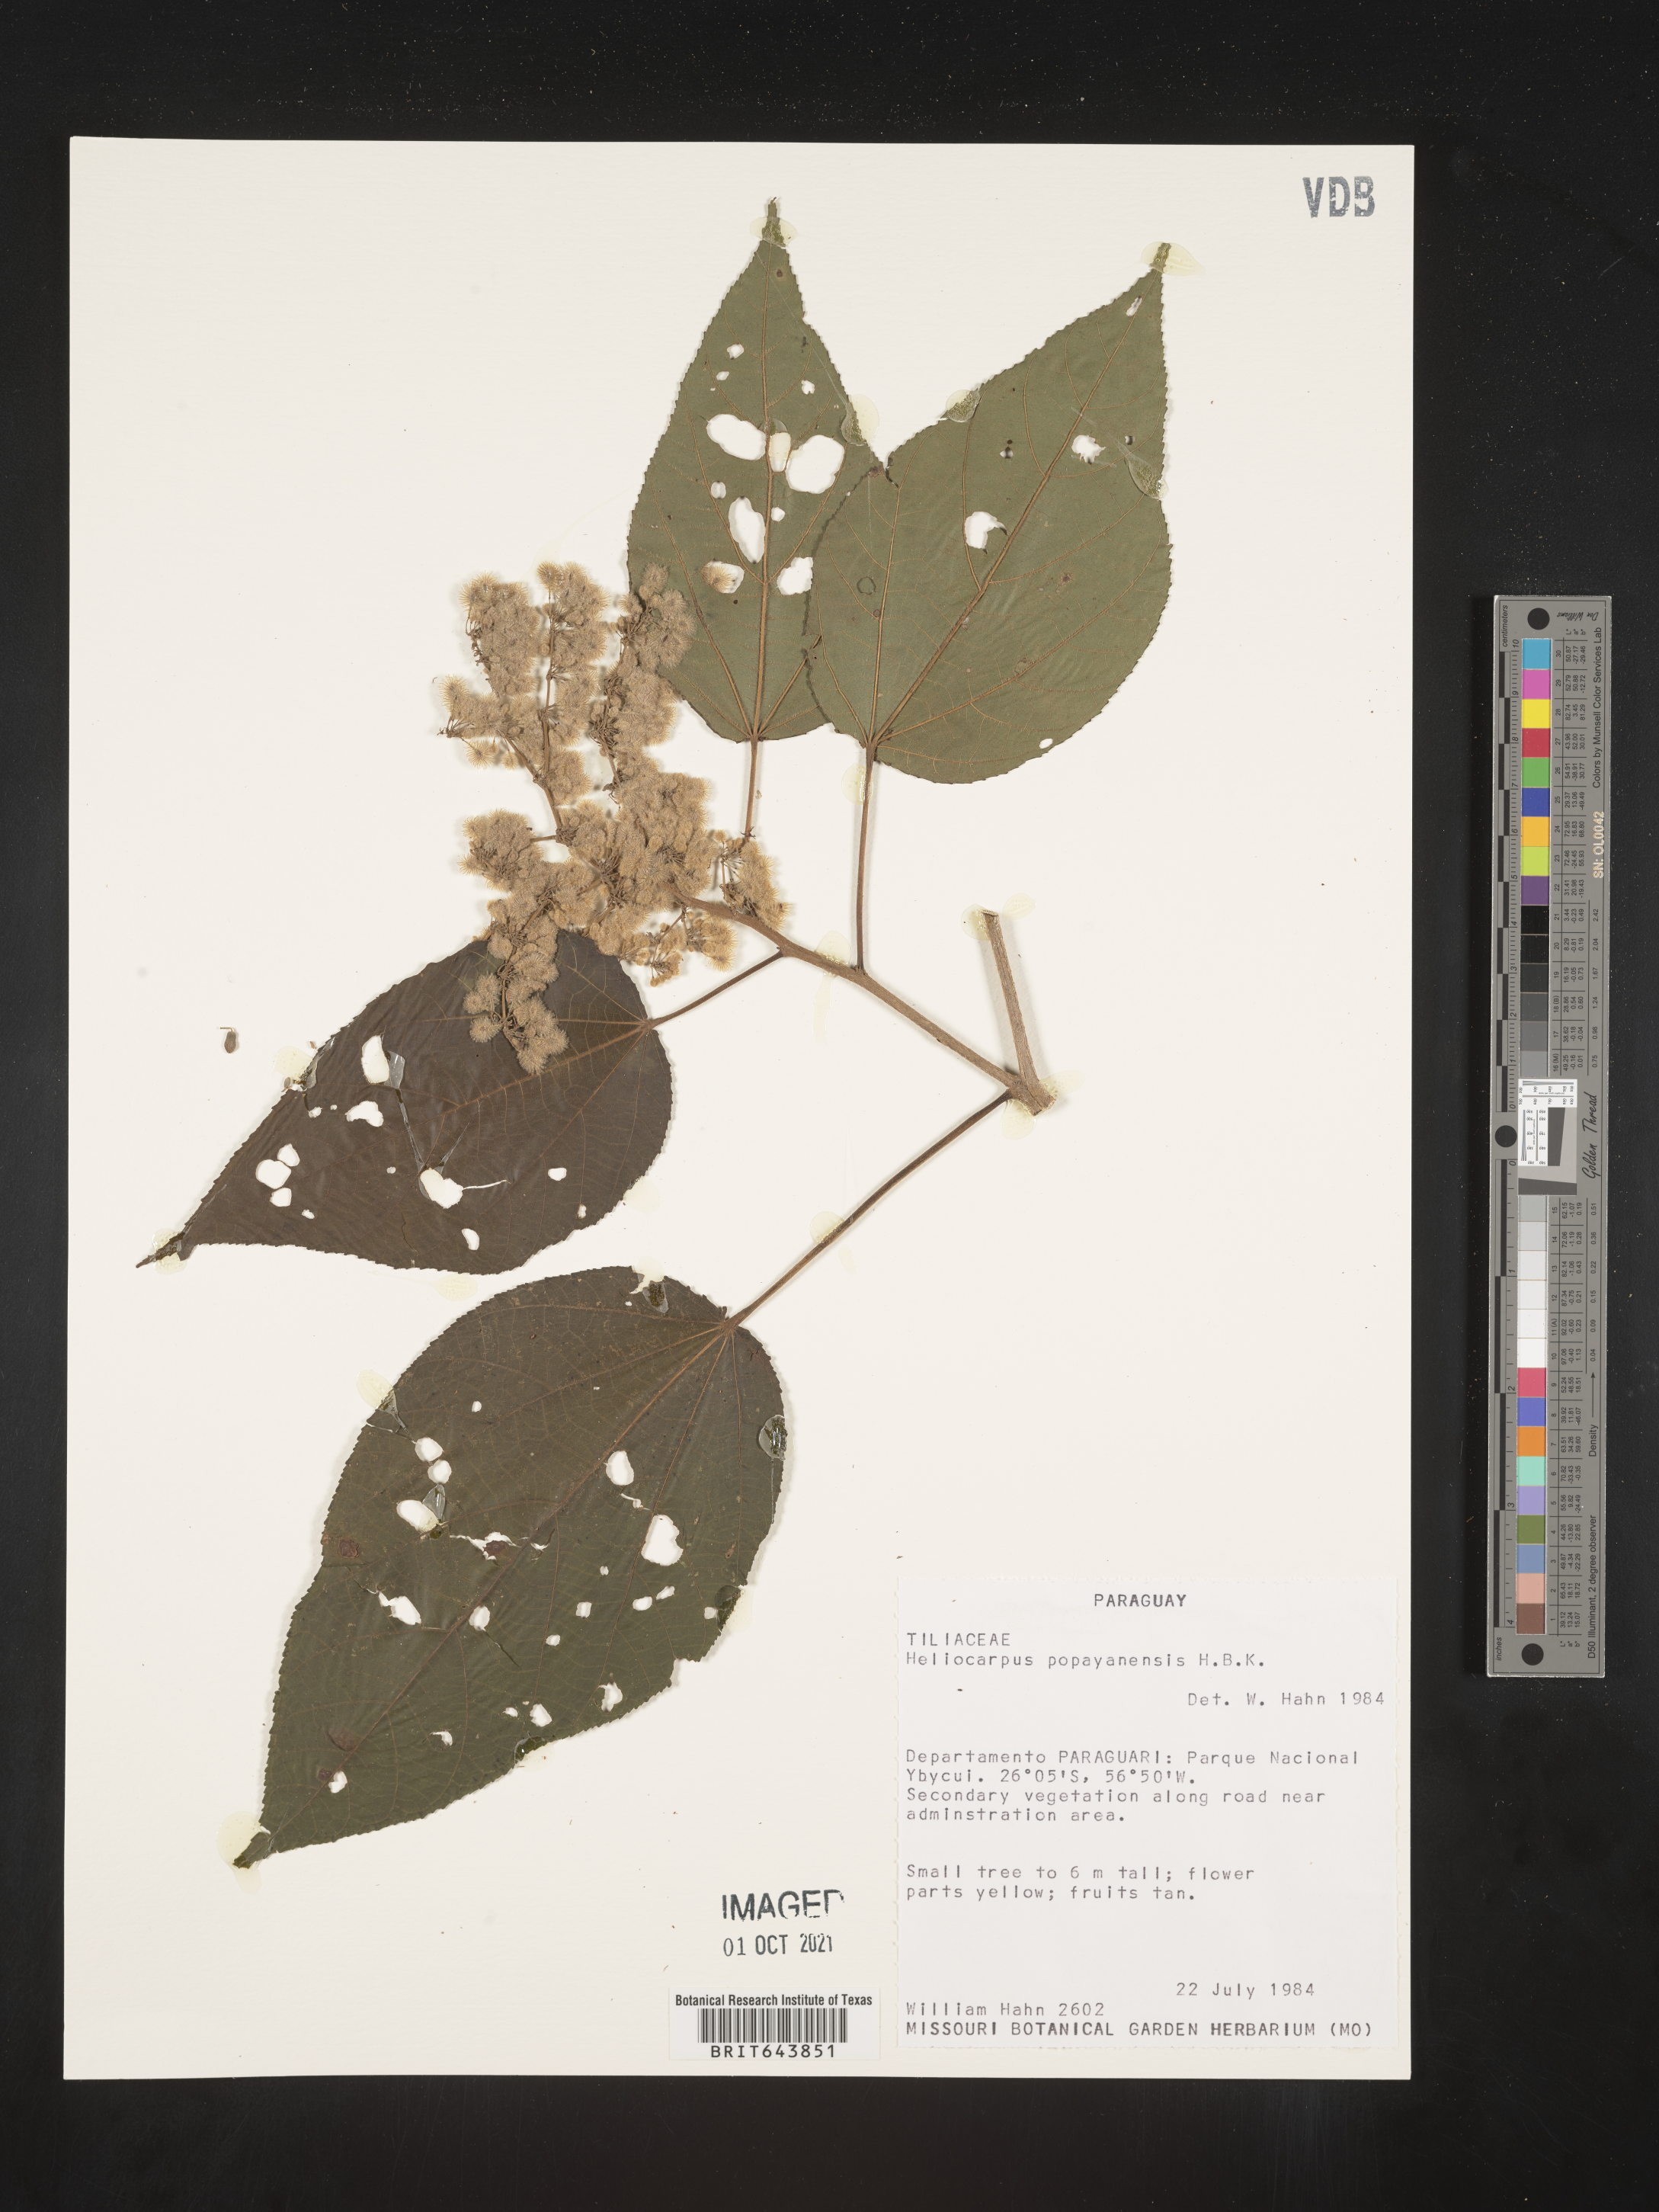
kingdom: Plantae
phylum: Tracheophyta
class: Magnoliopsida
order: Malvales
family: Malvaceae
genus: Heliocarpus
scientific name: Heliocarpus
